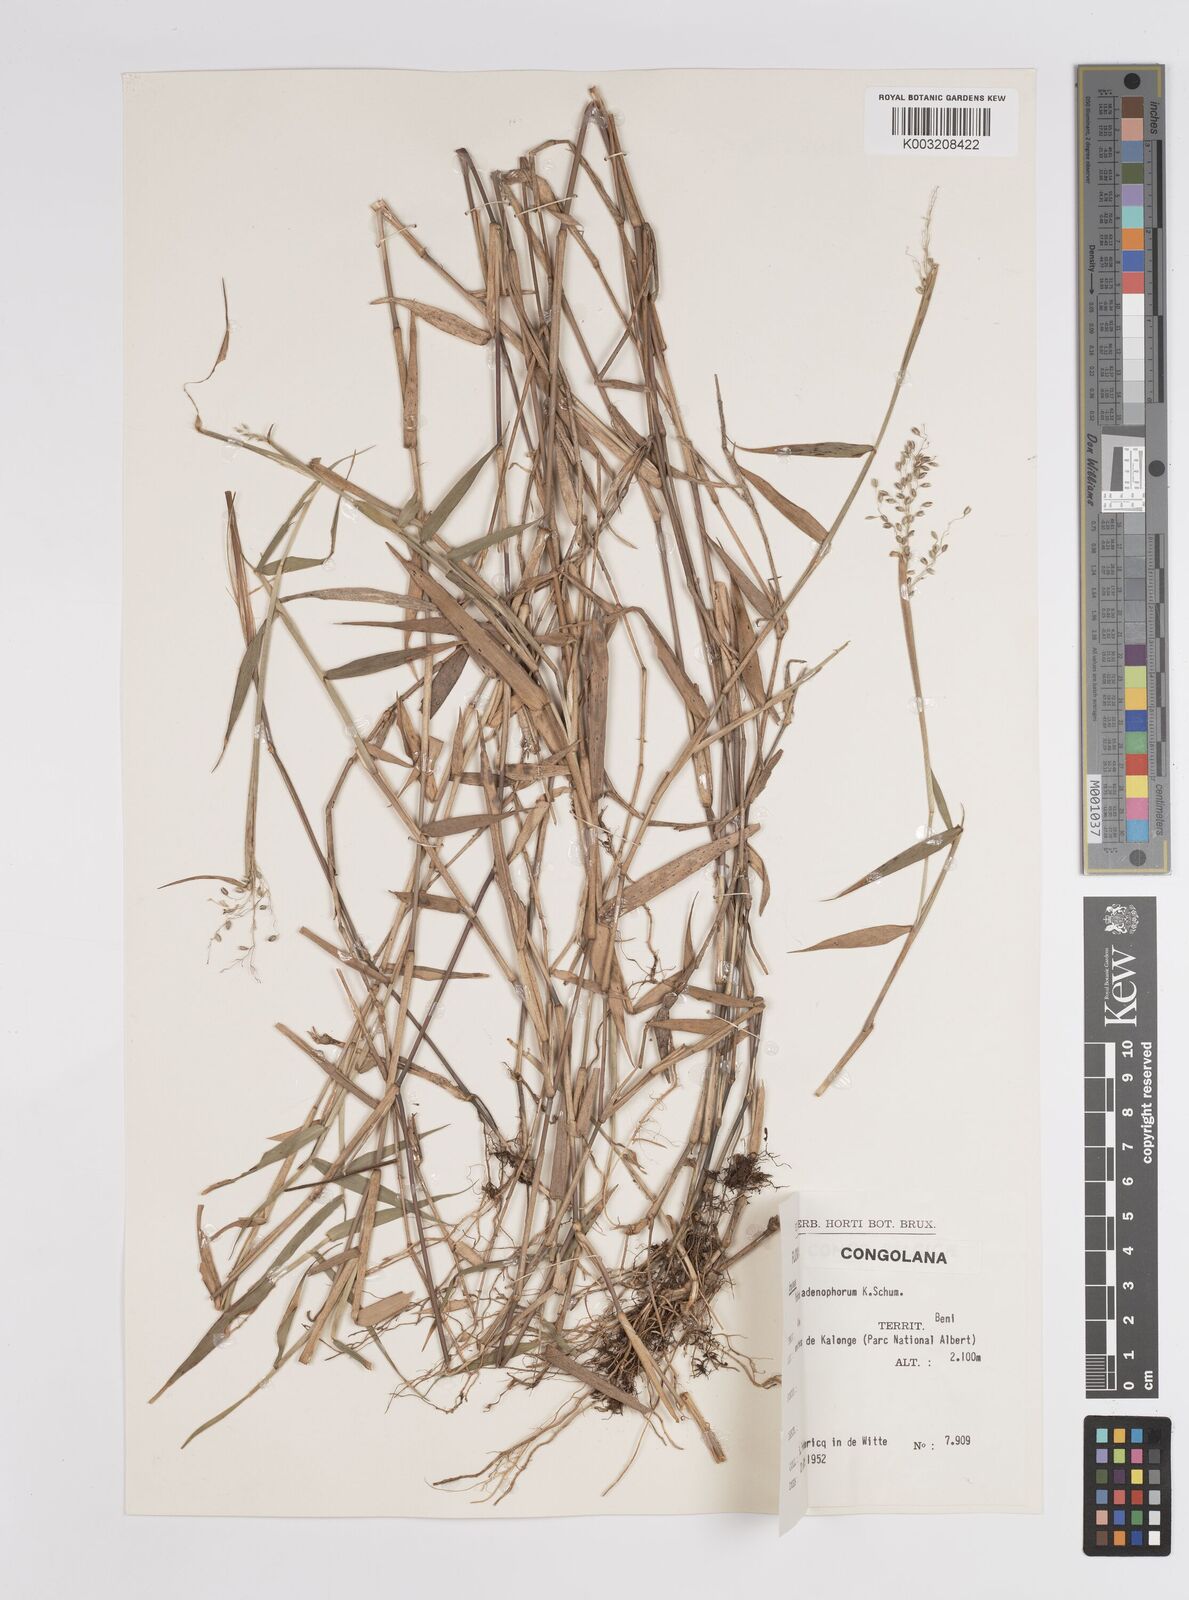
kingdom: Plantae
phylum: Tracheophyta
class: Liliopsida
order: Poales
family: Poaceae
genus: Adenochloa
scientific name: Adenochloa adenophora
